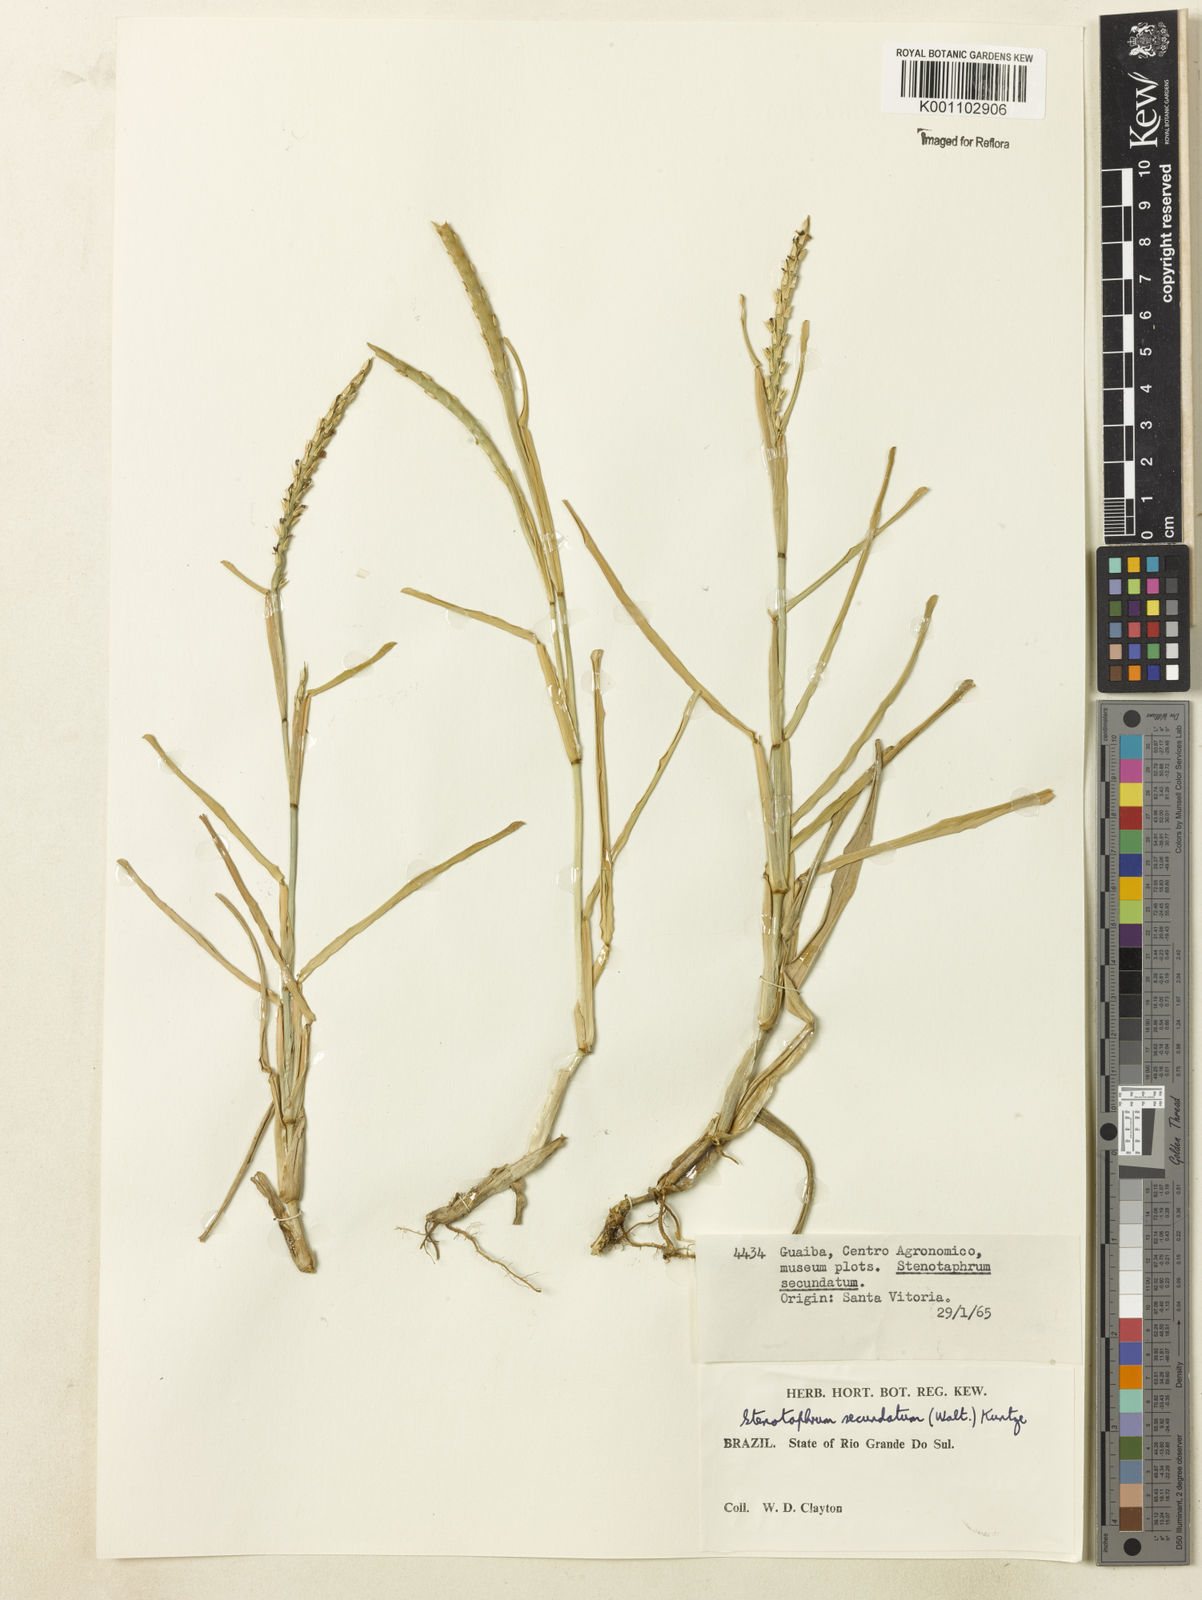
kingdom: Plantae
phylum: Tracheophyta
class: Liliopsida
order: Poales
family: Poaceae
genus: Stenotaphrum
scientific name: Stenotaphrum secundatum
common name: St. augustine grass
